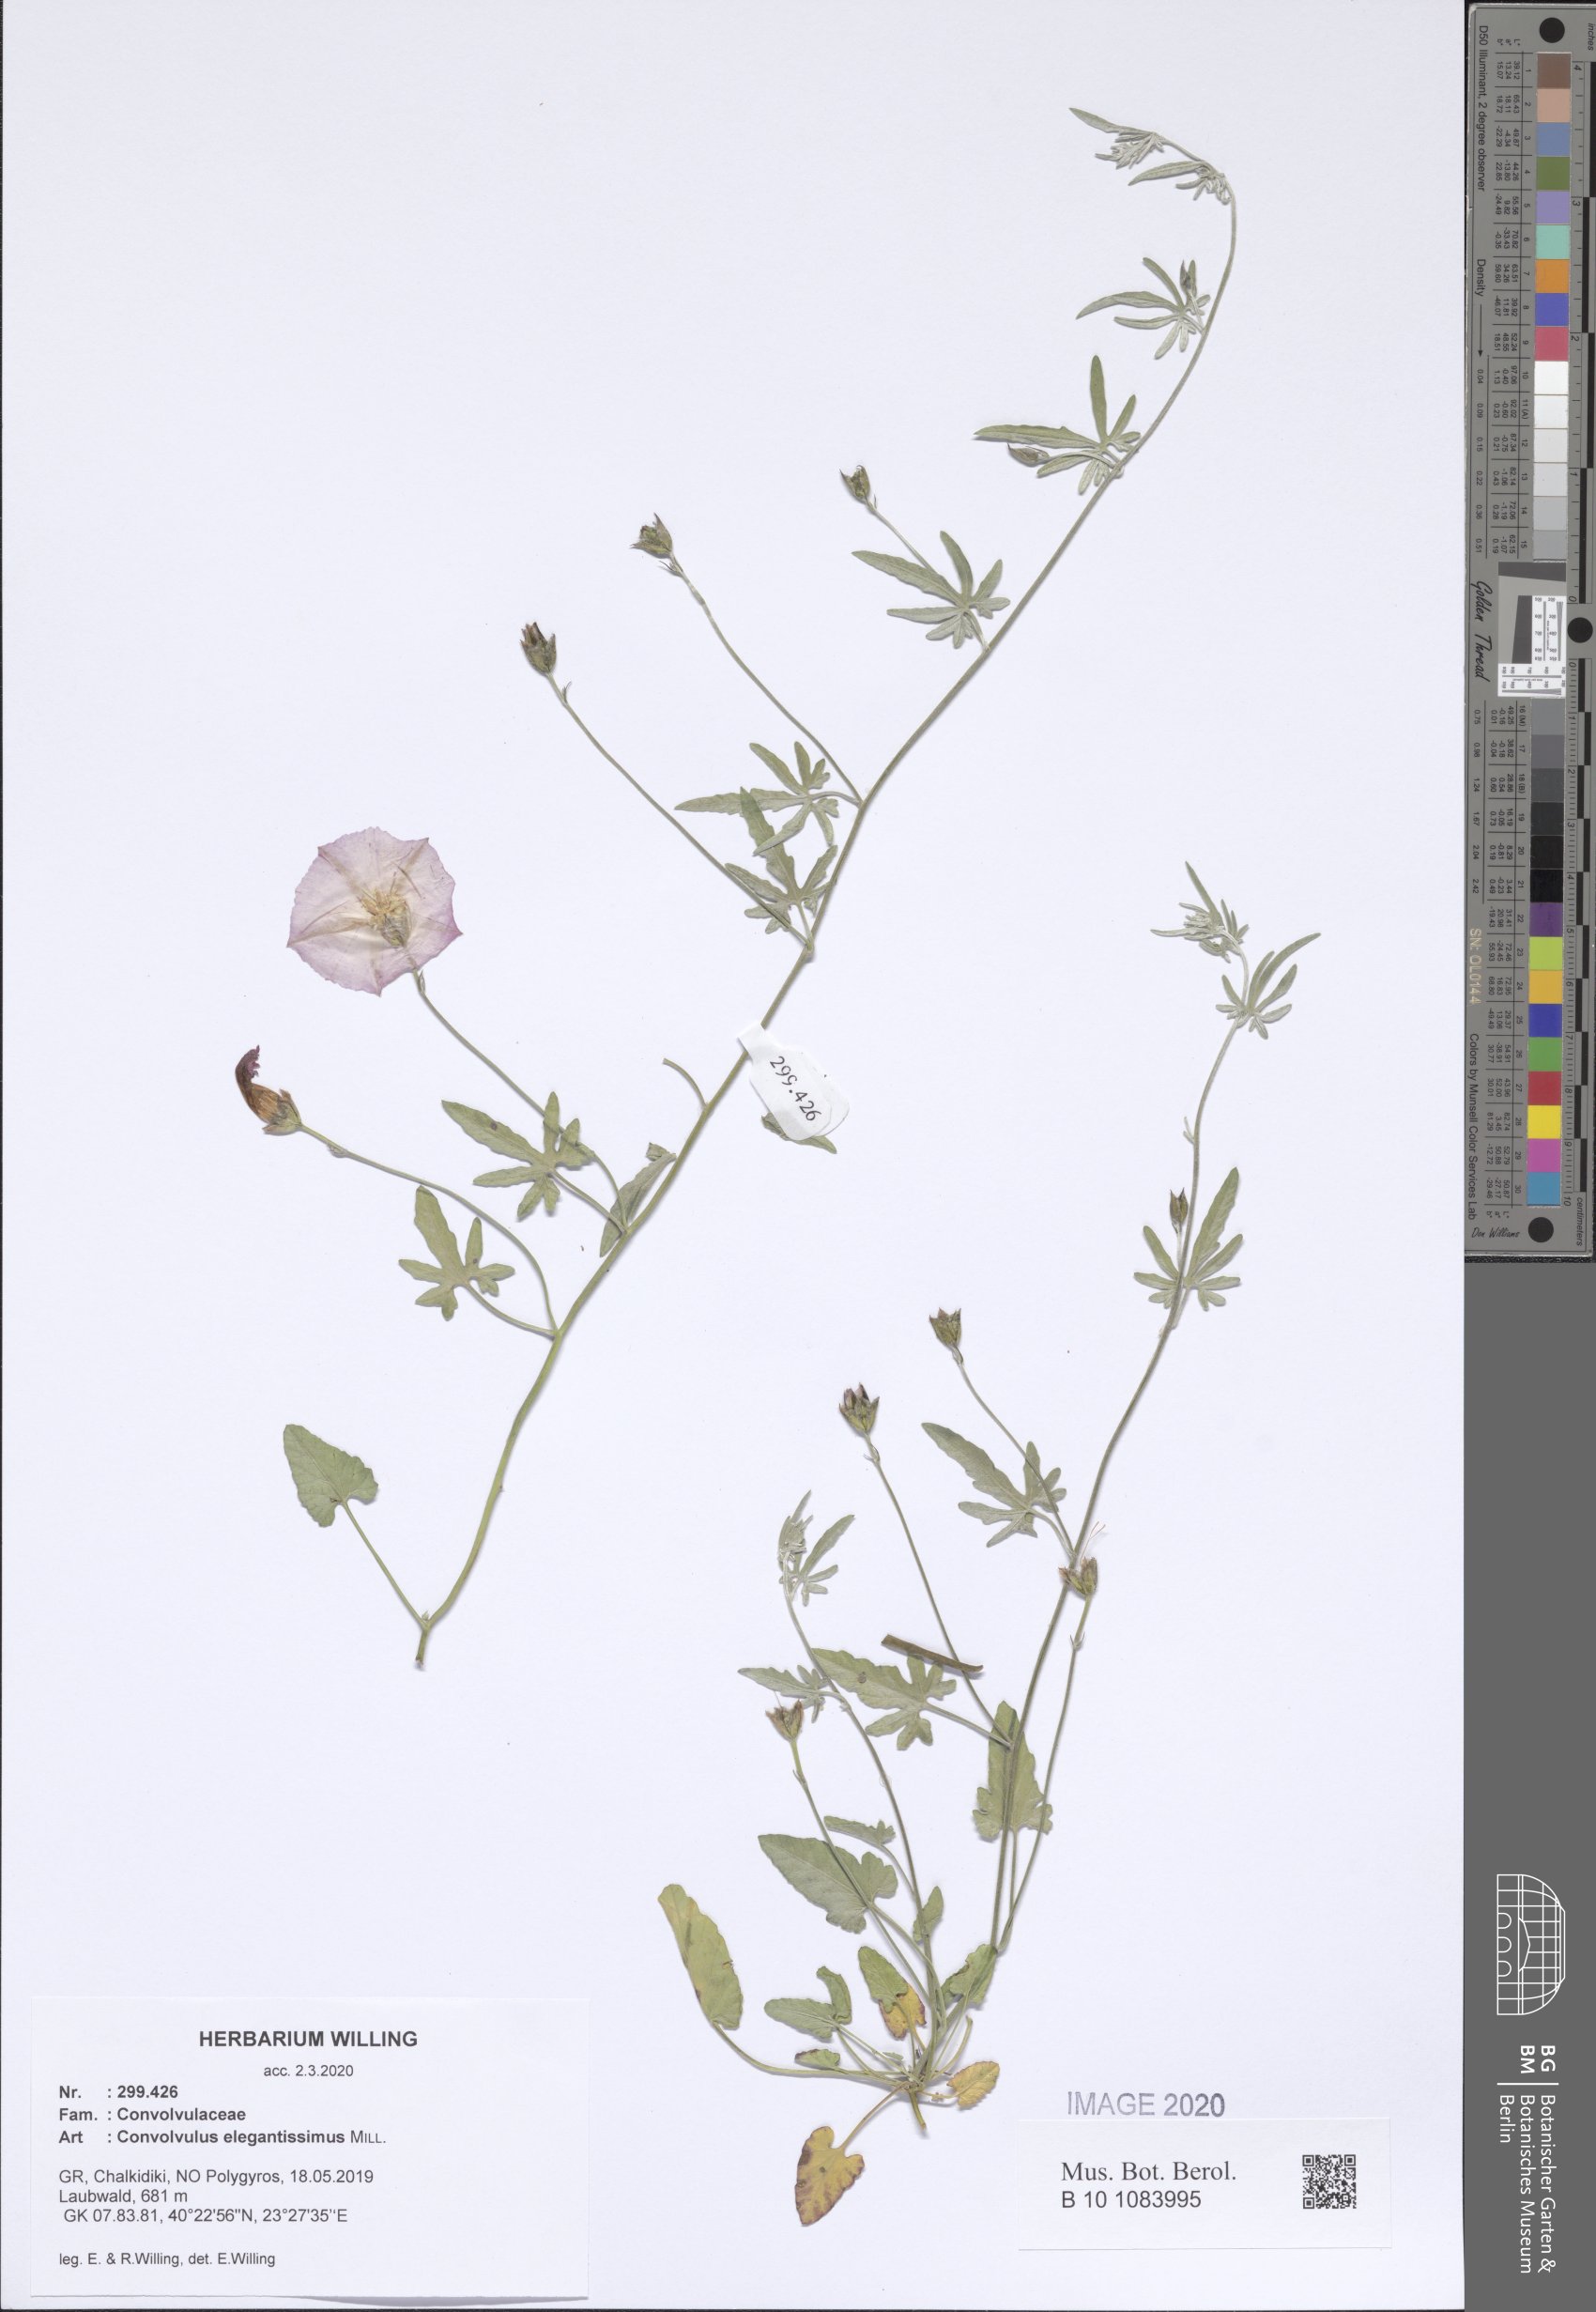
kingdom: Plantae
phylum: Tracheophyta
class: Magnoliopsida
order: Solanales
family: Convolvulaceae
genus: Convolvulus
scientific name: Convolvulus elegantissimus
